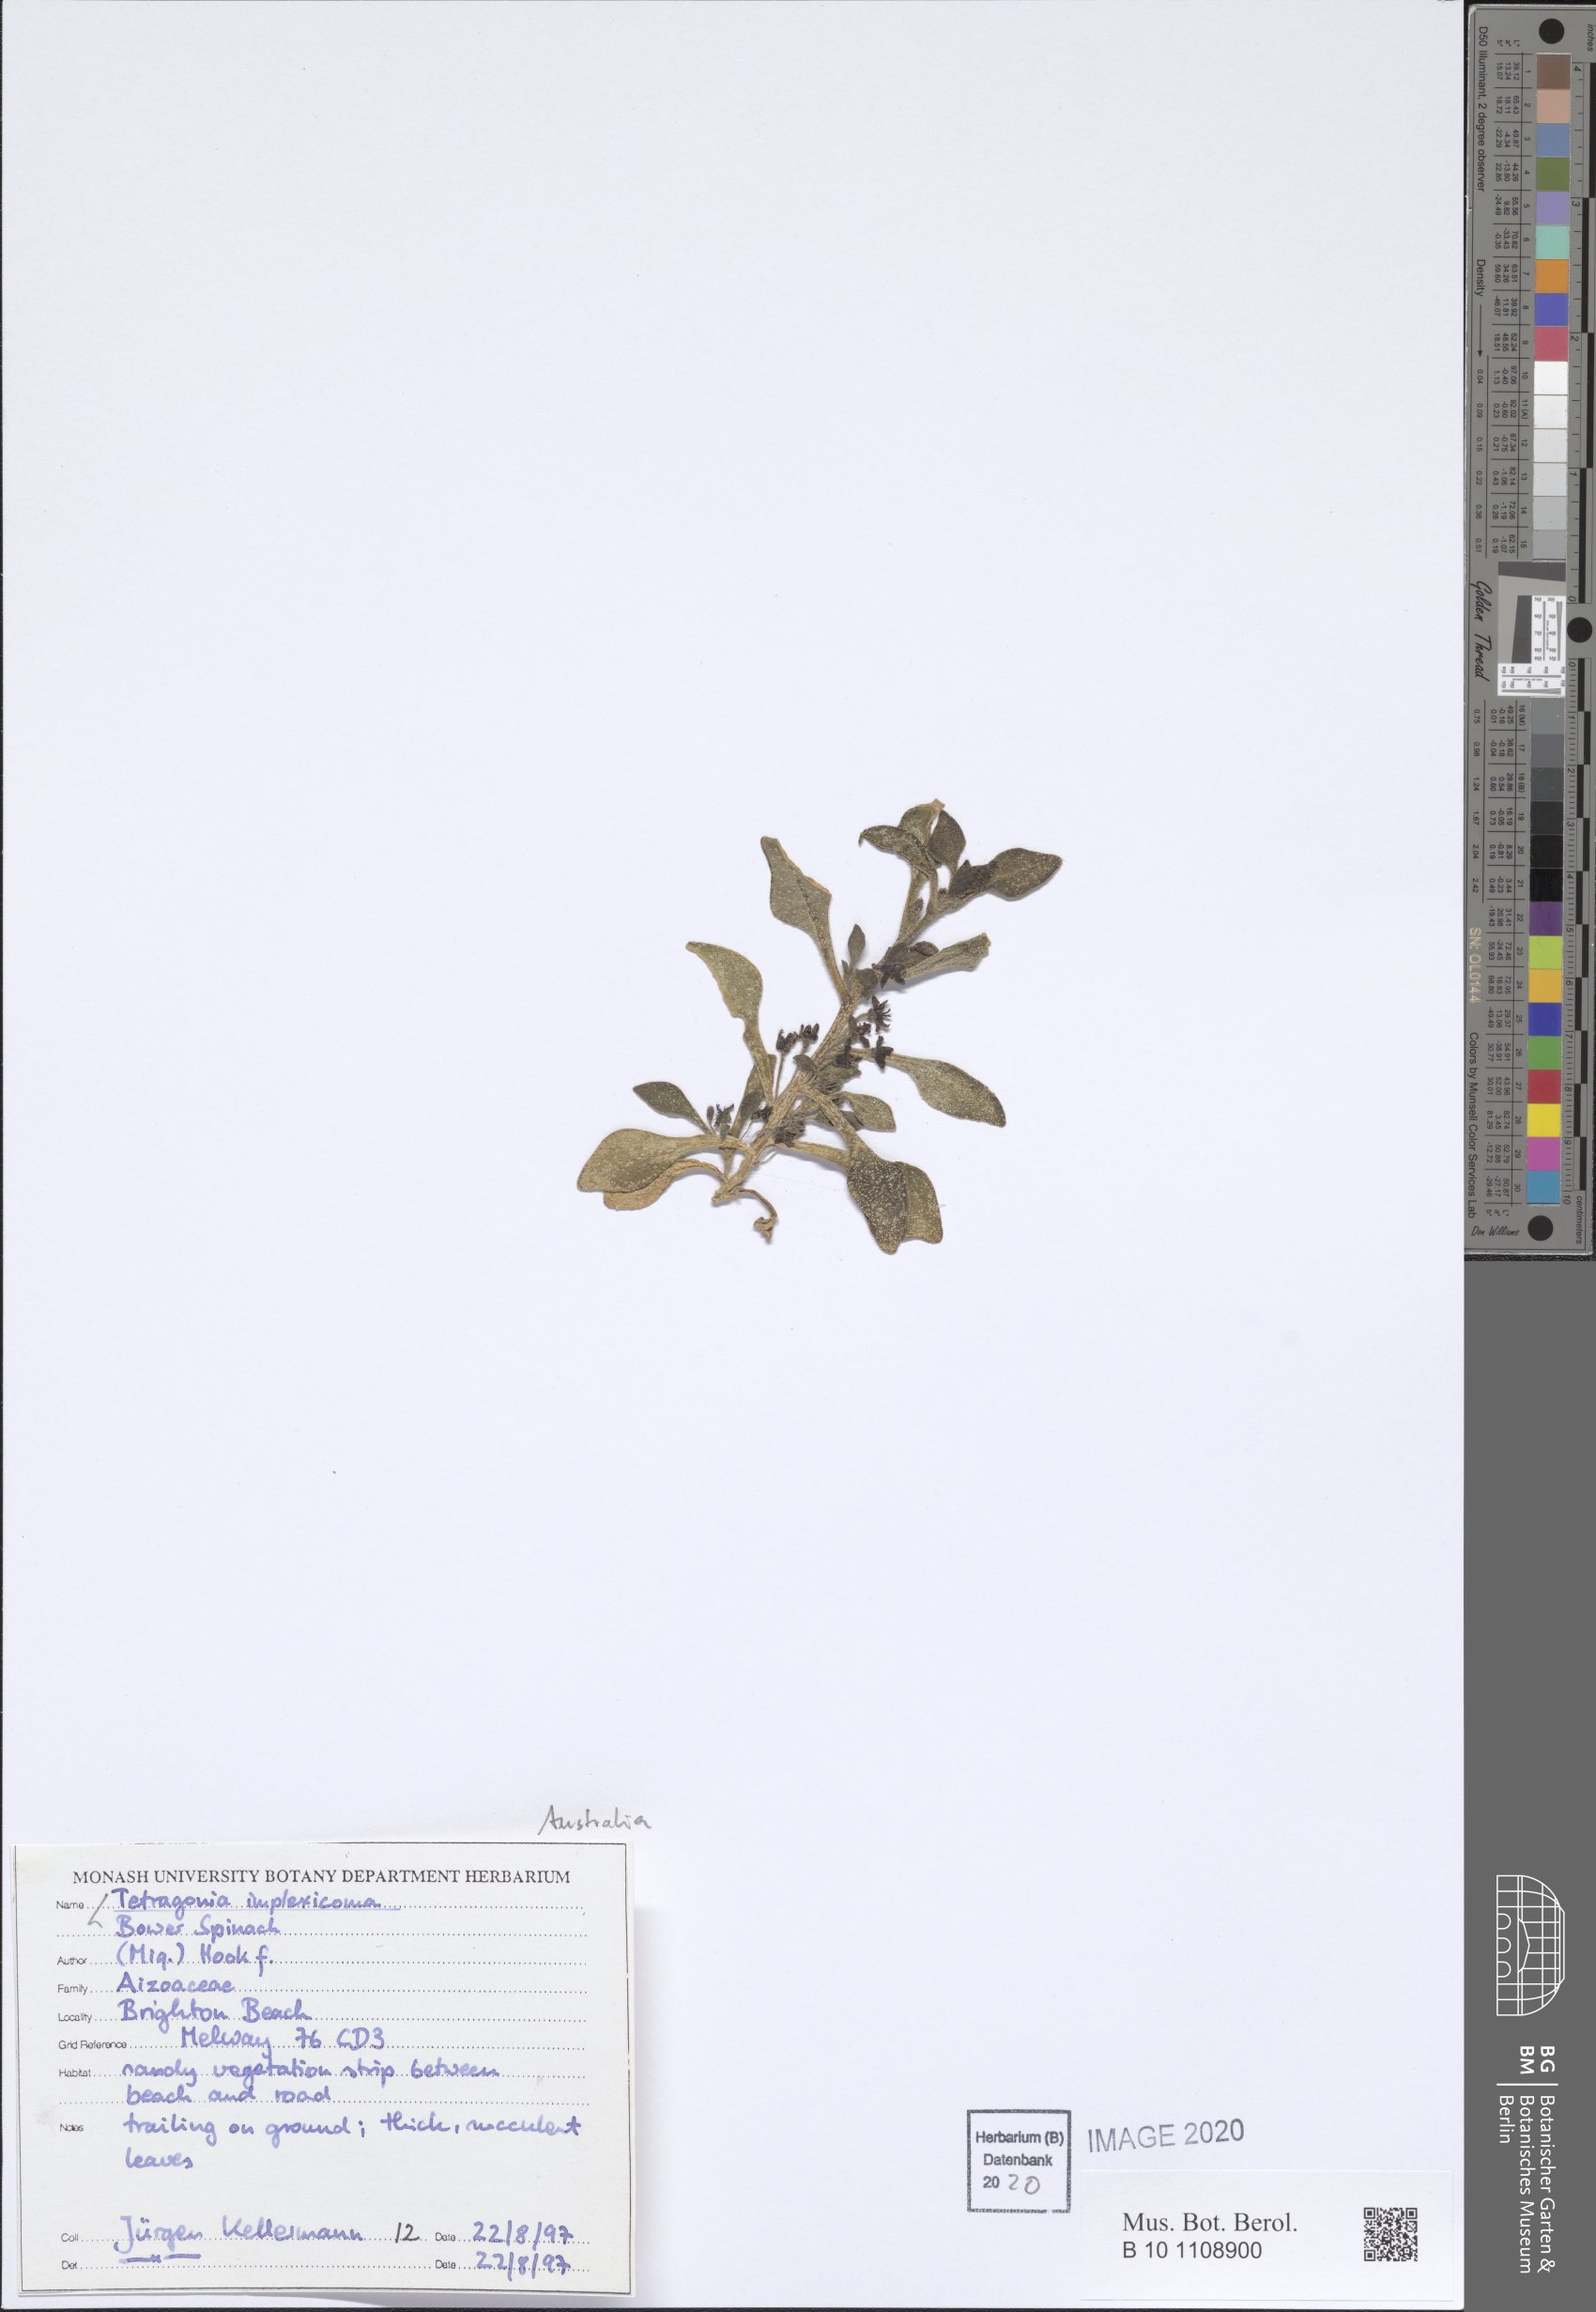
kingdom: Plantae
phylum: Tracheophyta
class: Magnoliopsida
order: Caryophyllales
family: Aizoaceae
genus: Tetragonia
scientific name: Tetragonia implexicoma
